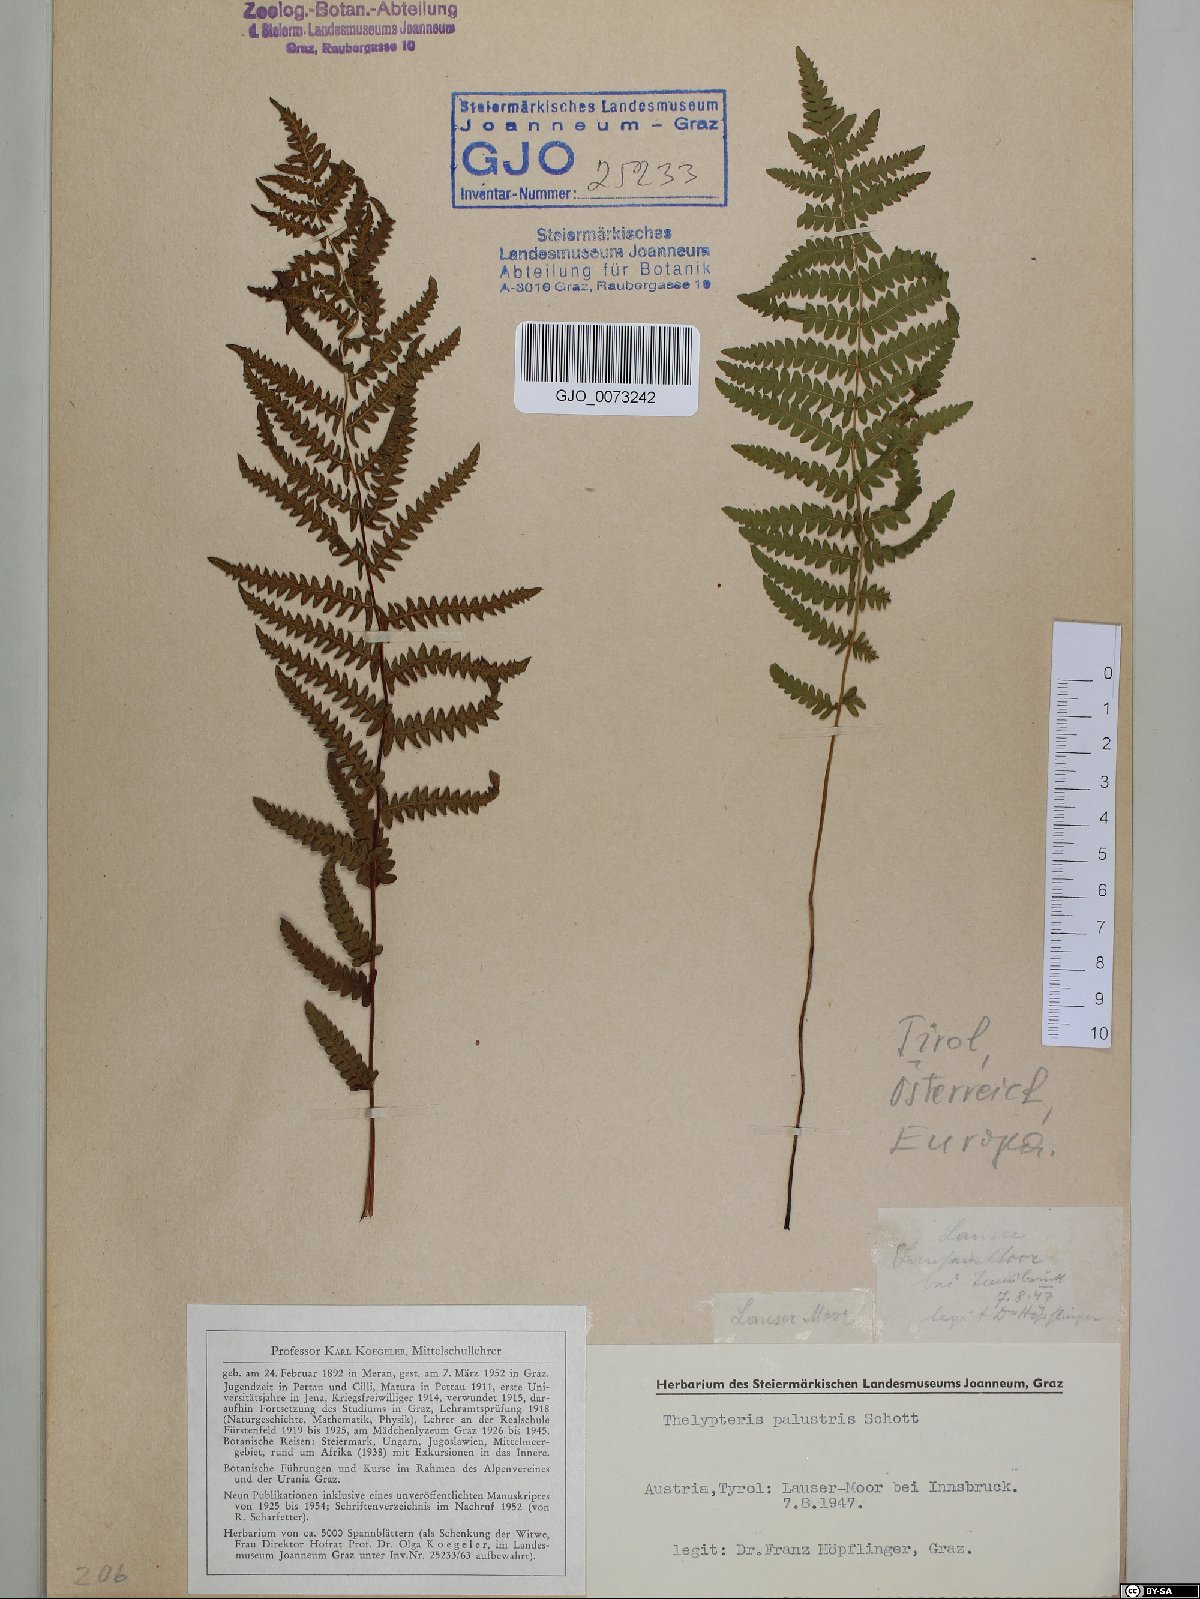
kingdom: Plantae
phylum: Tracheophyta
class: Polypodiopsida
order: Polypodiales
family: Thelypteridaceae
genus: Thelypteris
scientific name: Thelypteris palustris
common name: Marsh fern
